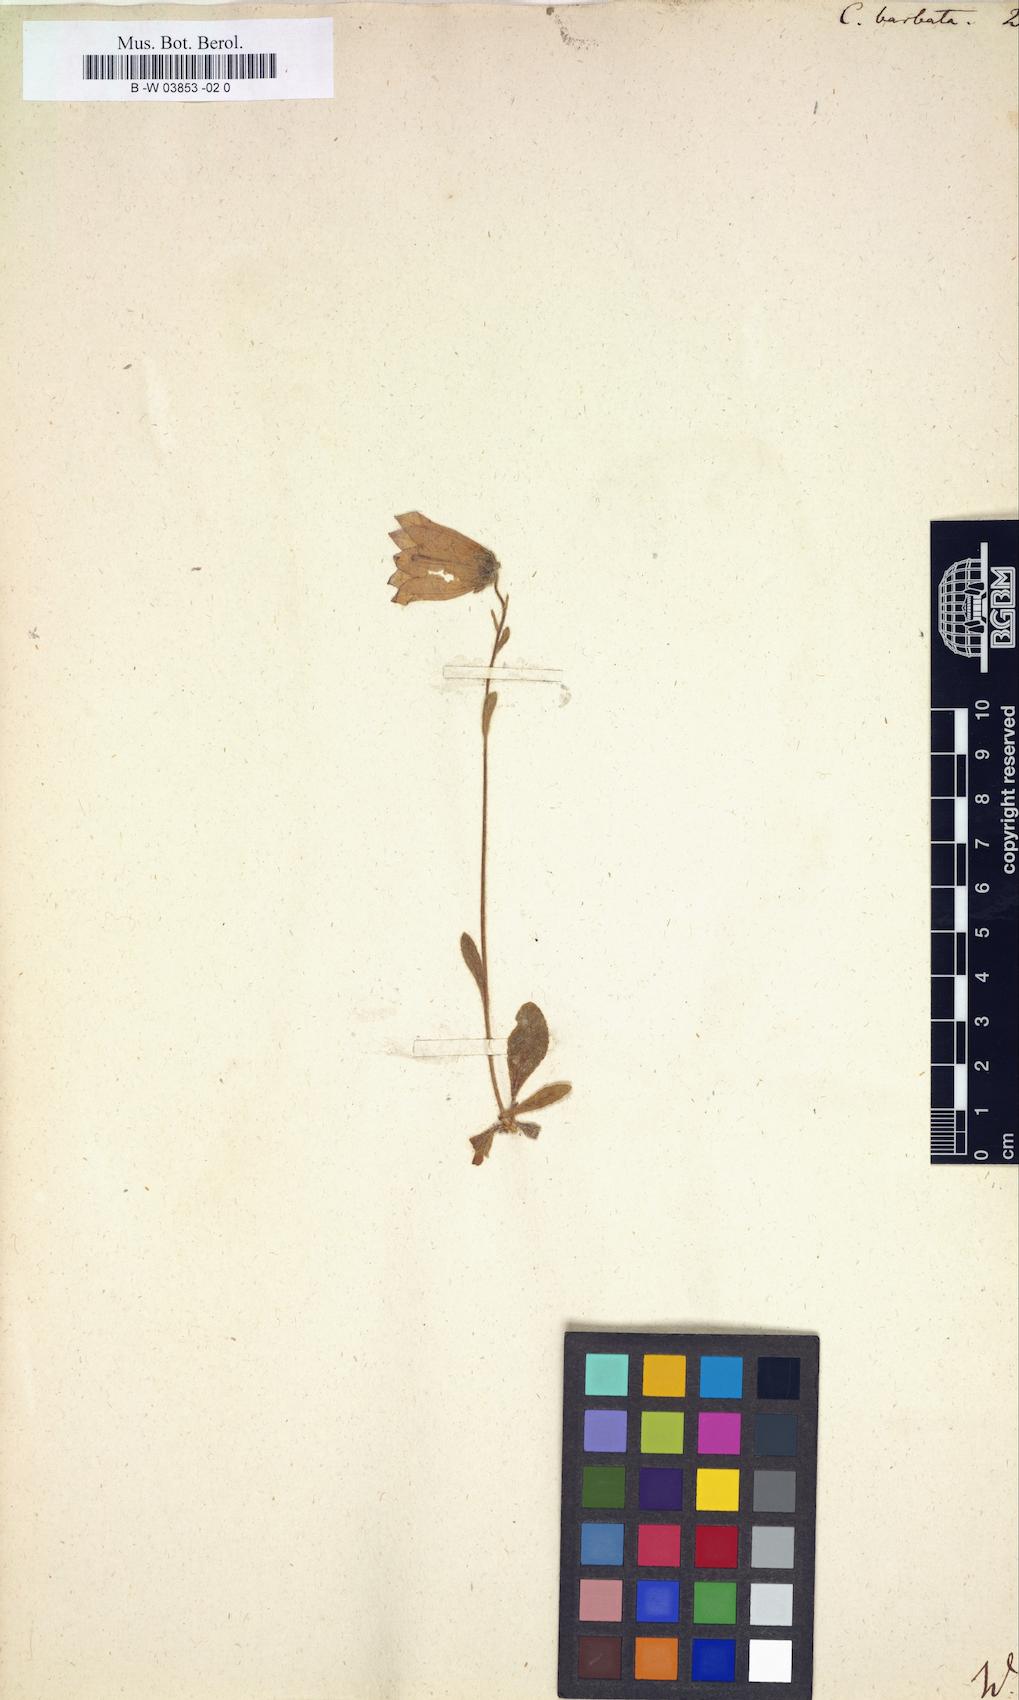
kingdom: Plantae
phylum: Tracheophyta
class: Magnoliopsida
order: Asterales
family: Campanulaceae
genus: Campanula
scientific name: Campanula barbata
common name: Bearded bellflower
